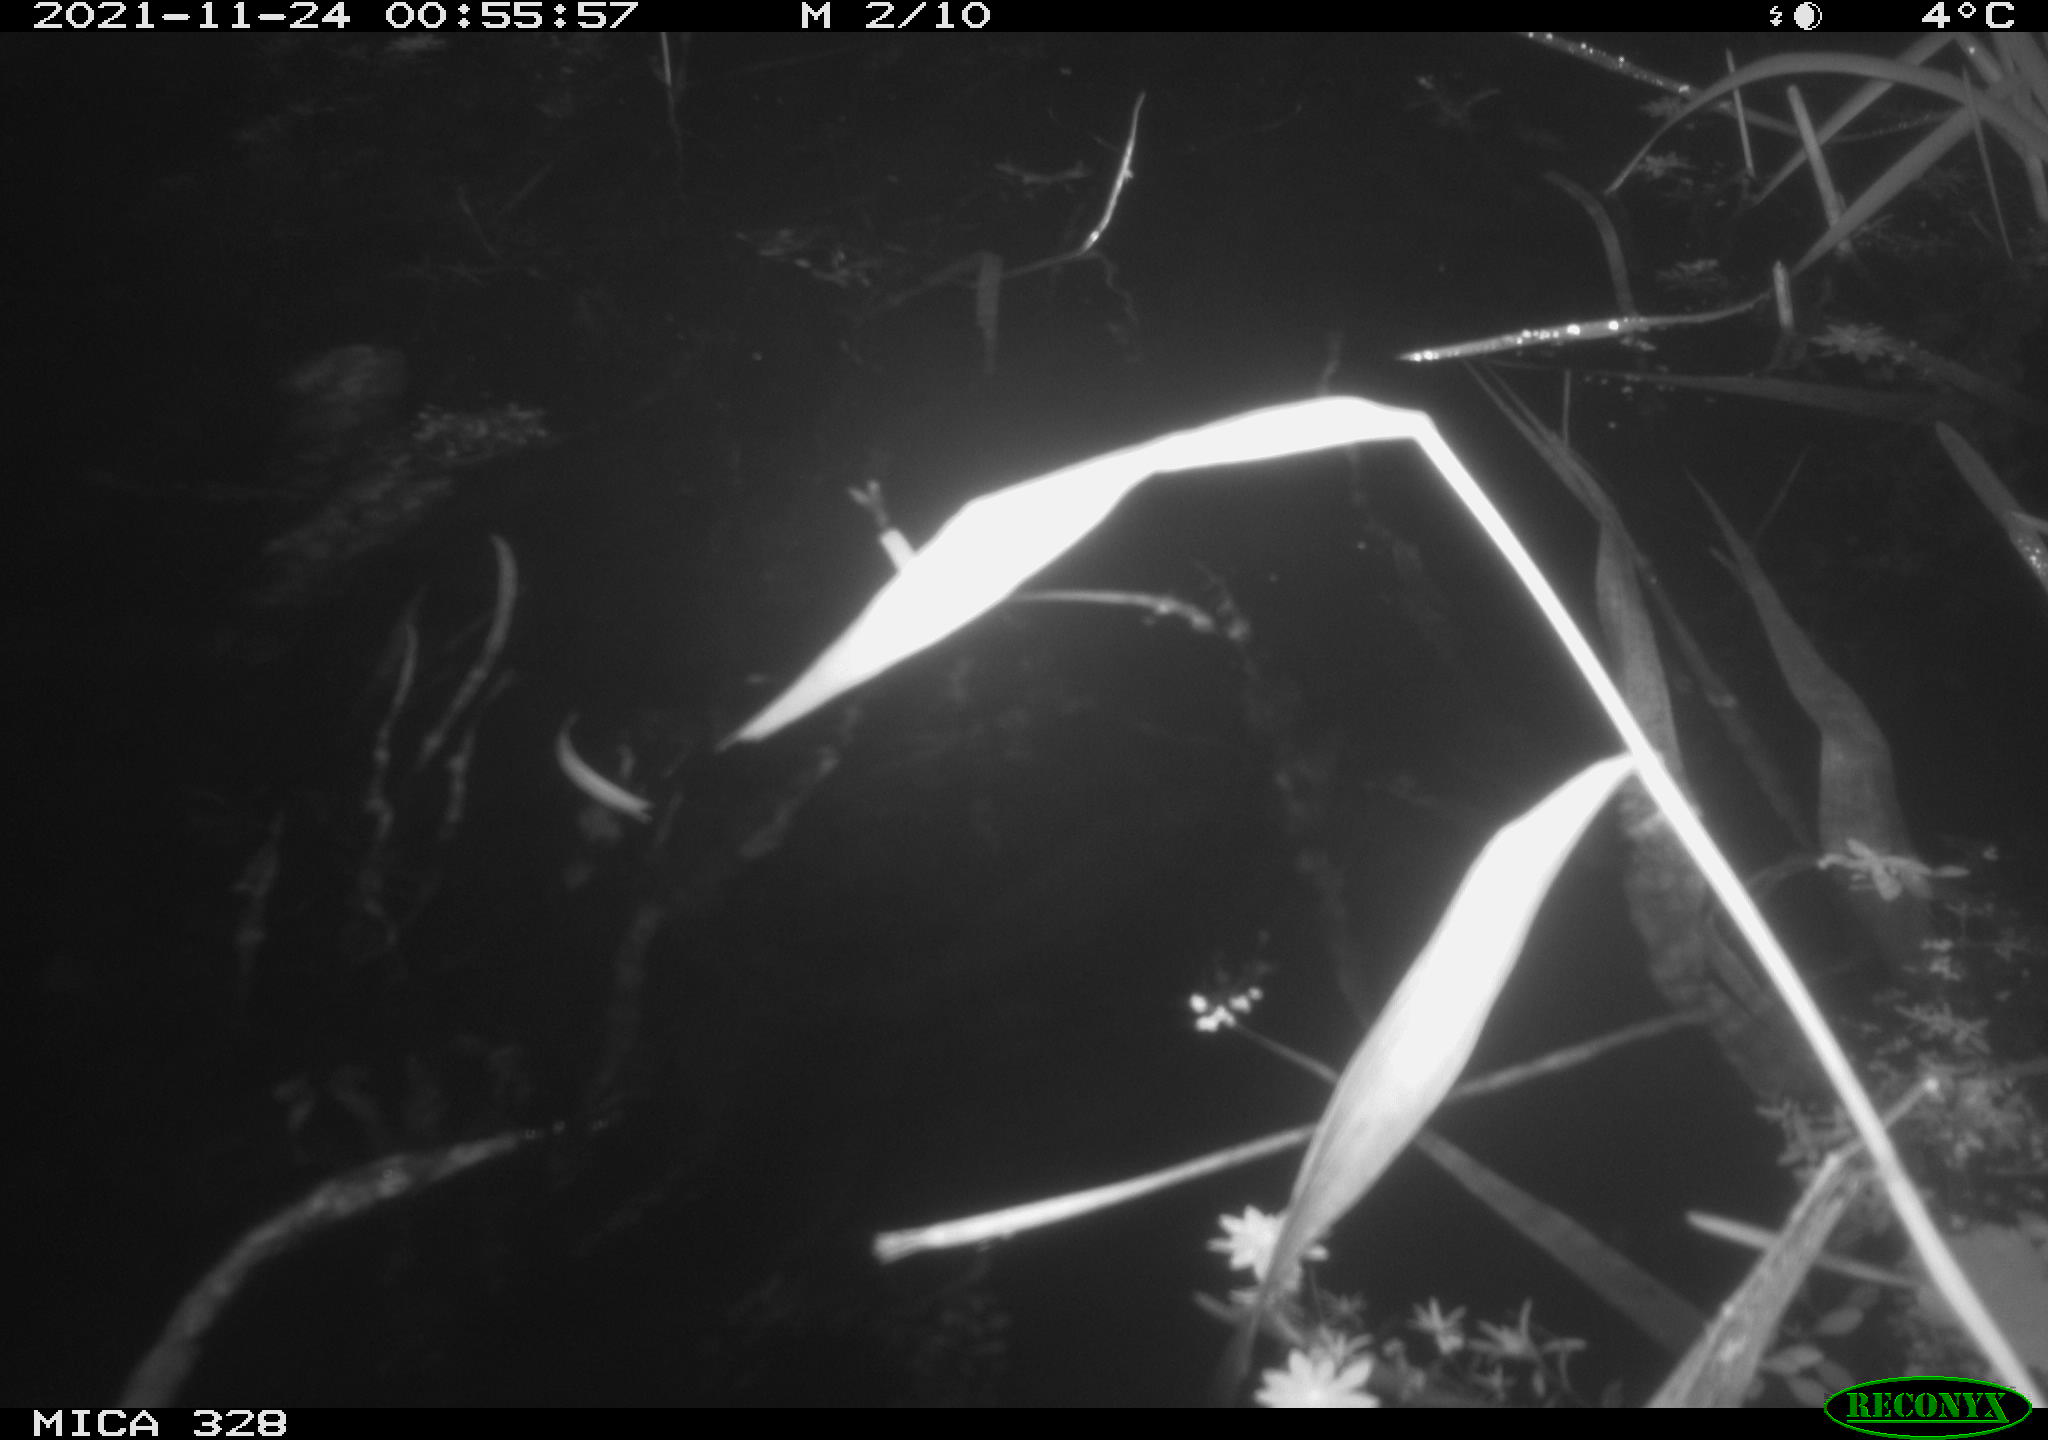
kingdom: Animalia
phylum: Chordata
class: Mammalia
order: Rodentia
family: Cricetidae
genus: Ondatra
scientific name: Ondatra zibethicus
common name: Muskrat
